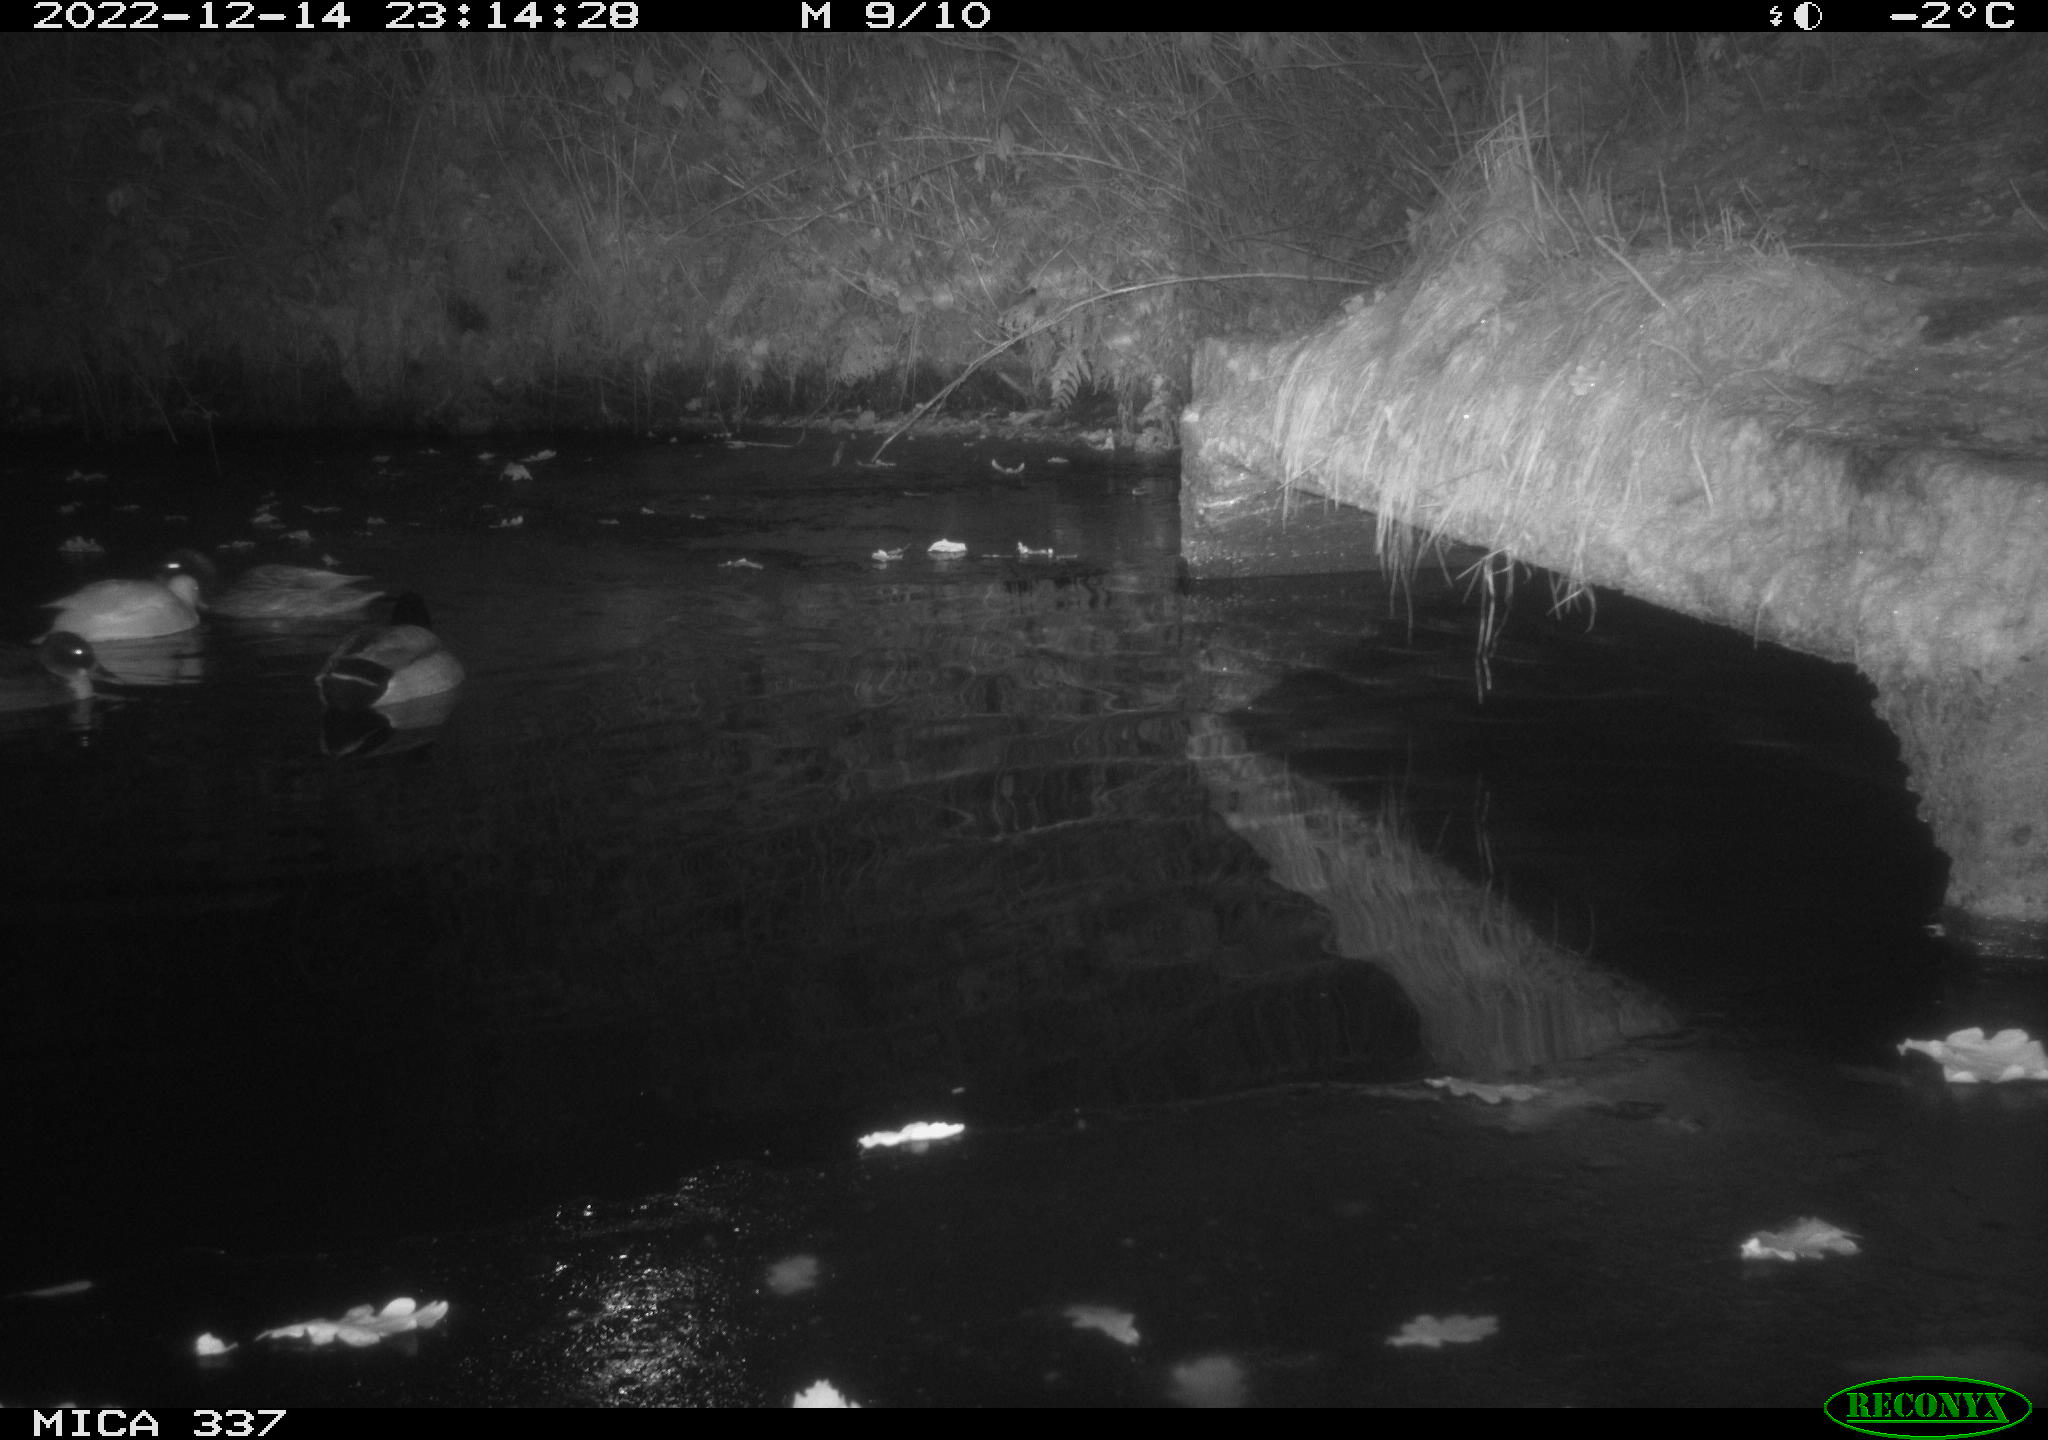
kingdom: Animalia
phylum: Chordata
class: Aves
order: Anseriformes
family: Anatidae
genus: Anas
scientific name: Anas
